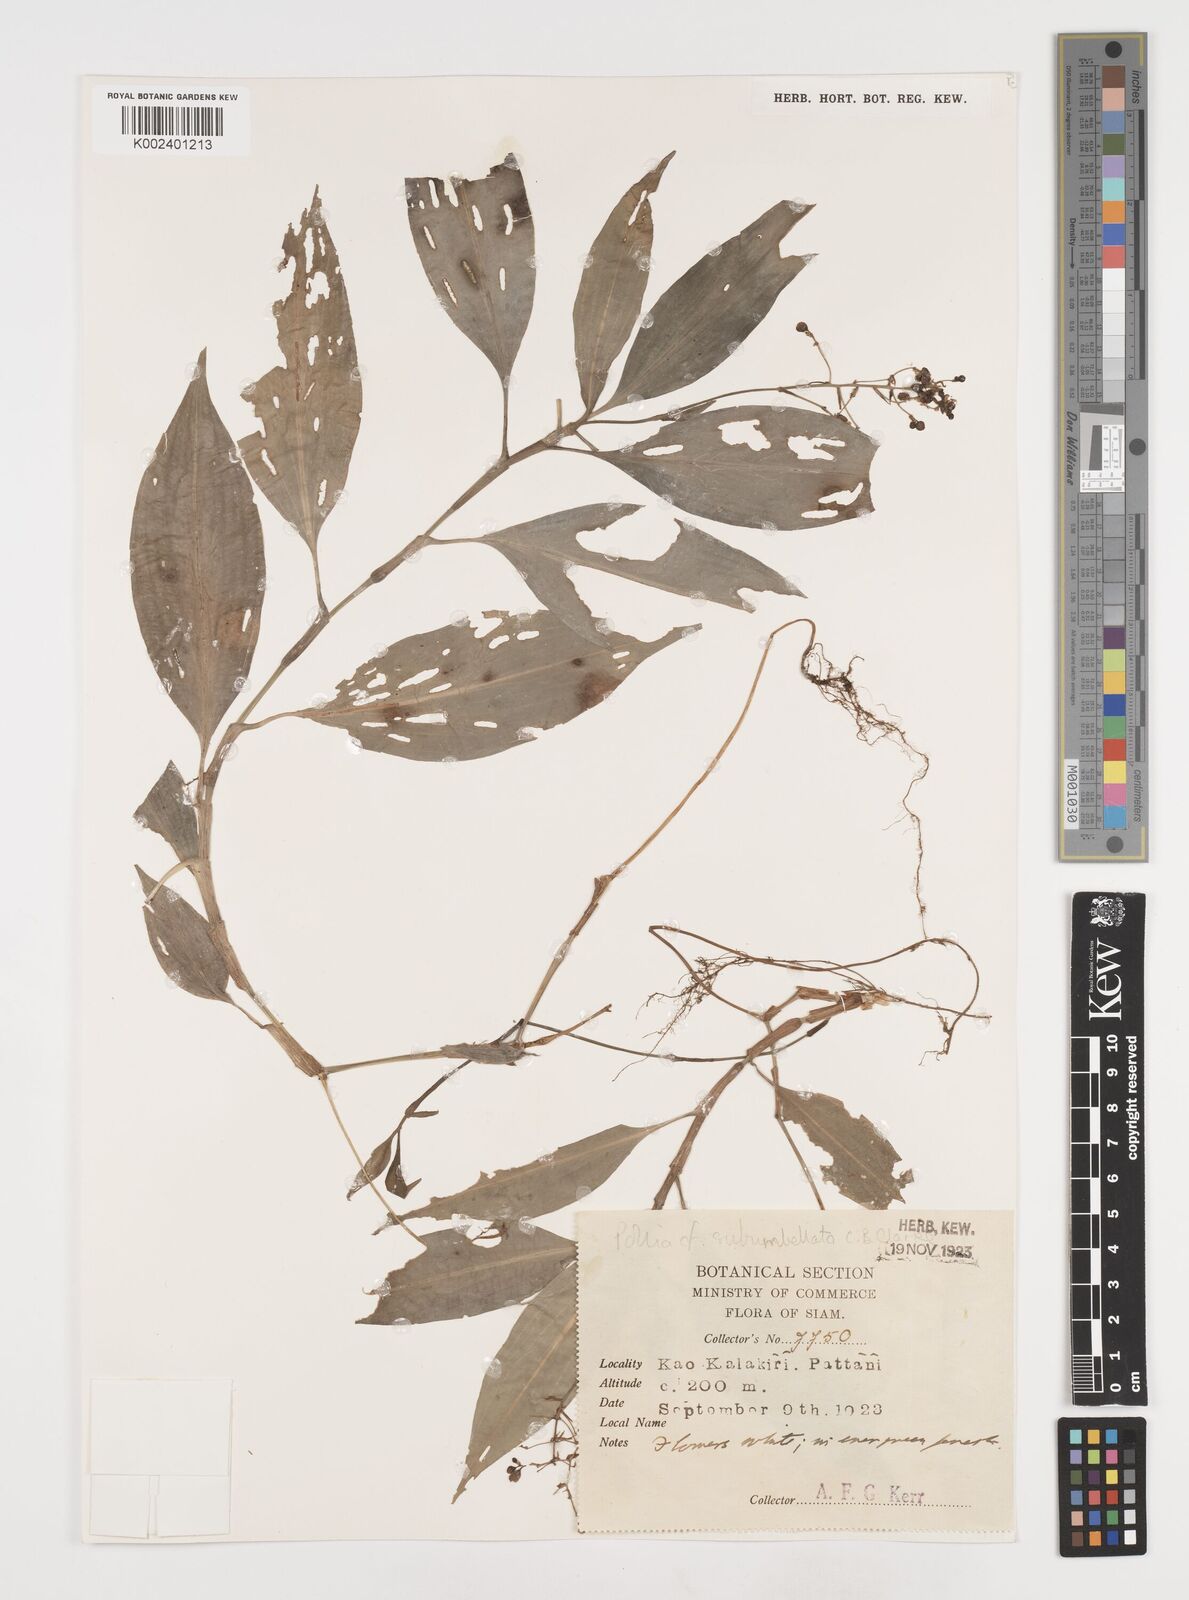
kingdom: Plantae
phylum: Tracheophyta
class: Liliopsida
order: Commelinales
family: Commelinaceae
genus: Pollia
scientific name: Pollia secundiflora
